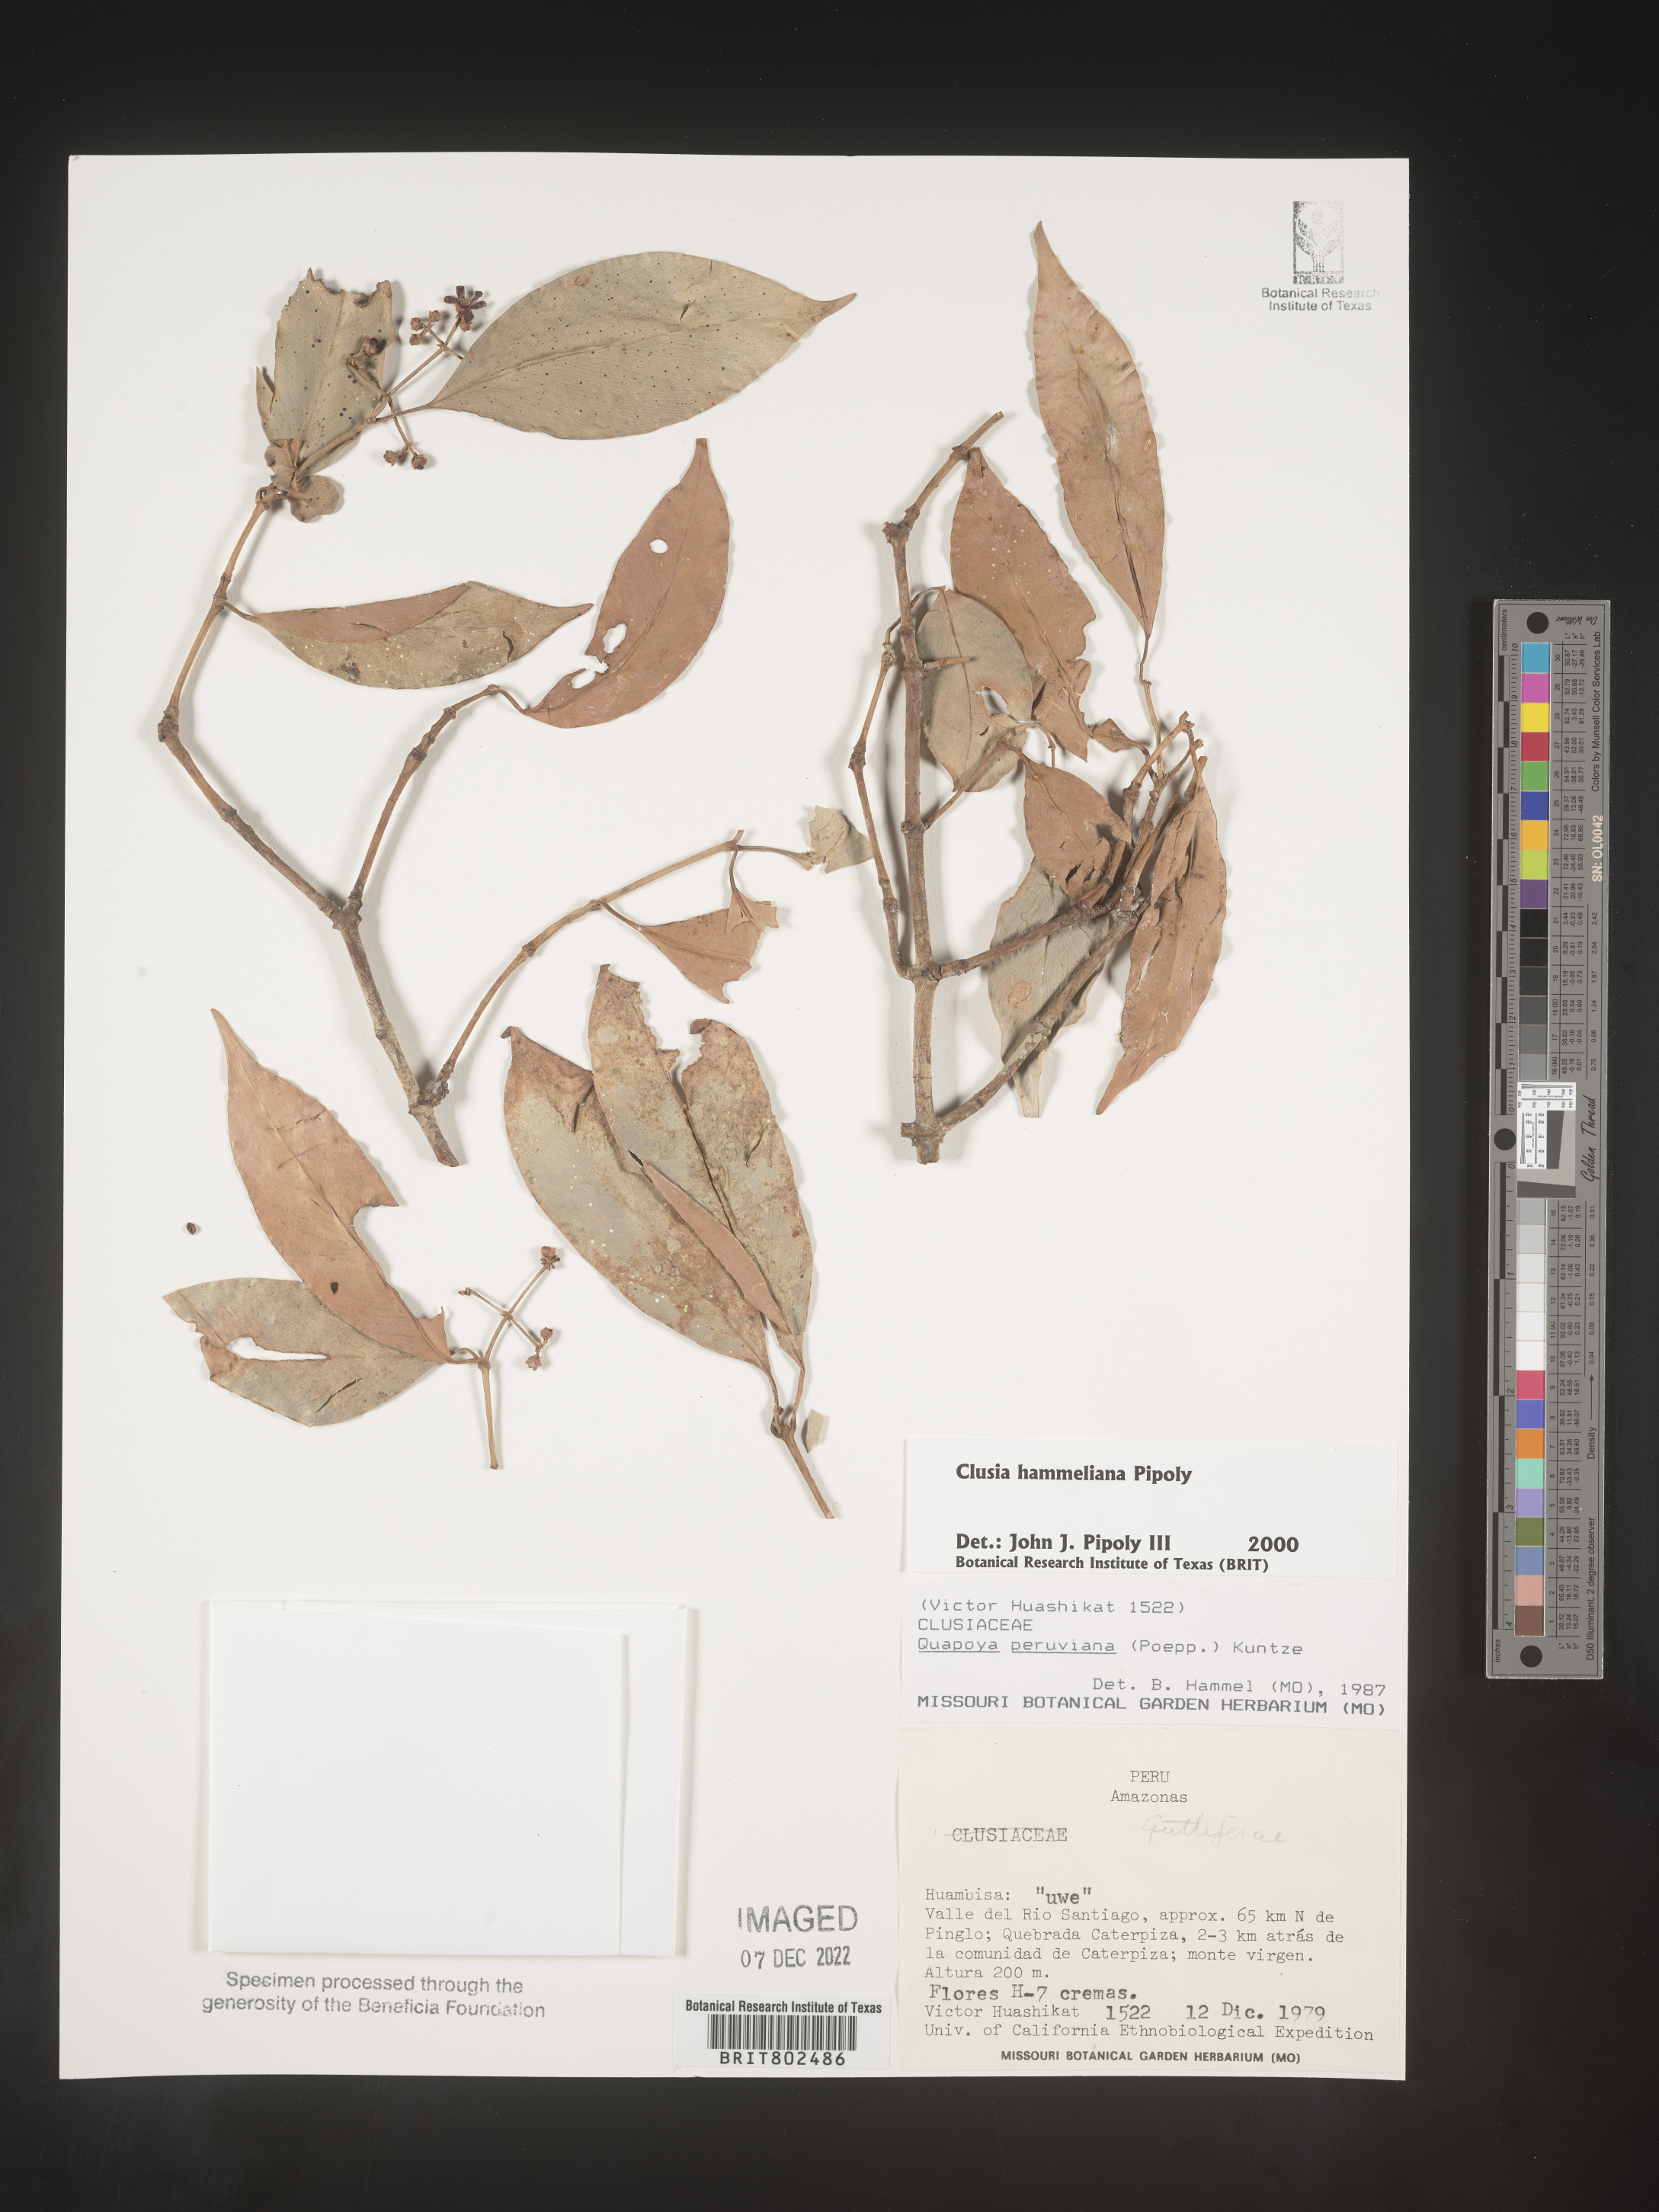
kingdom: Plantae
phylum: Tracheophyta
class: Magnoliopsida
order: Malpighiales
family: Clusiaceae
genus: Clusia
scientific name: Clusia hammeliana
